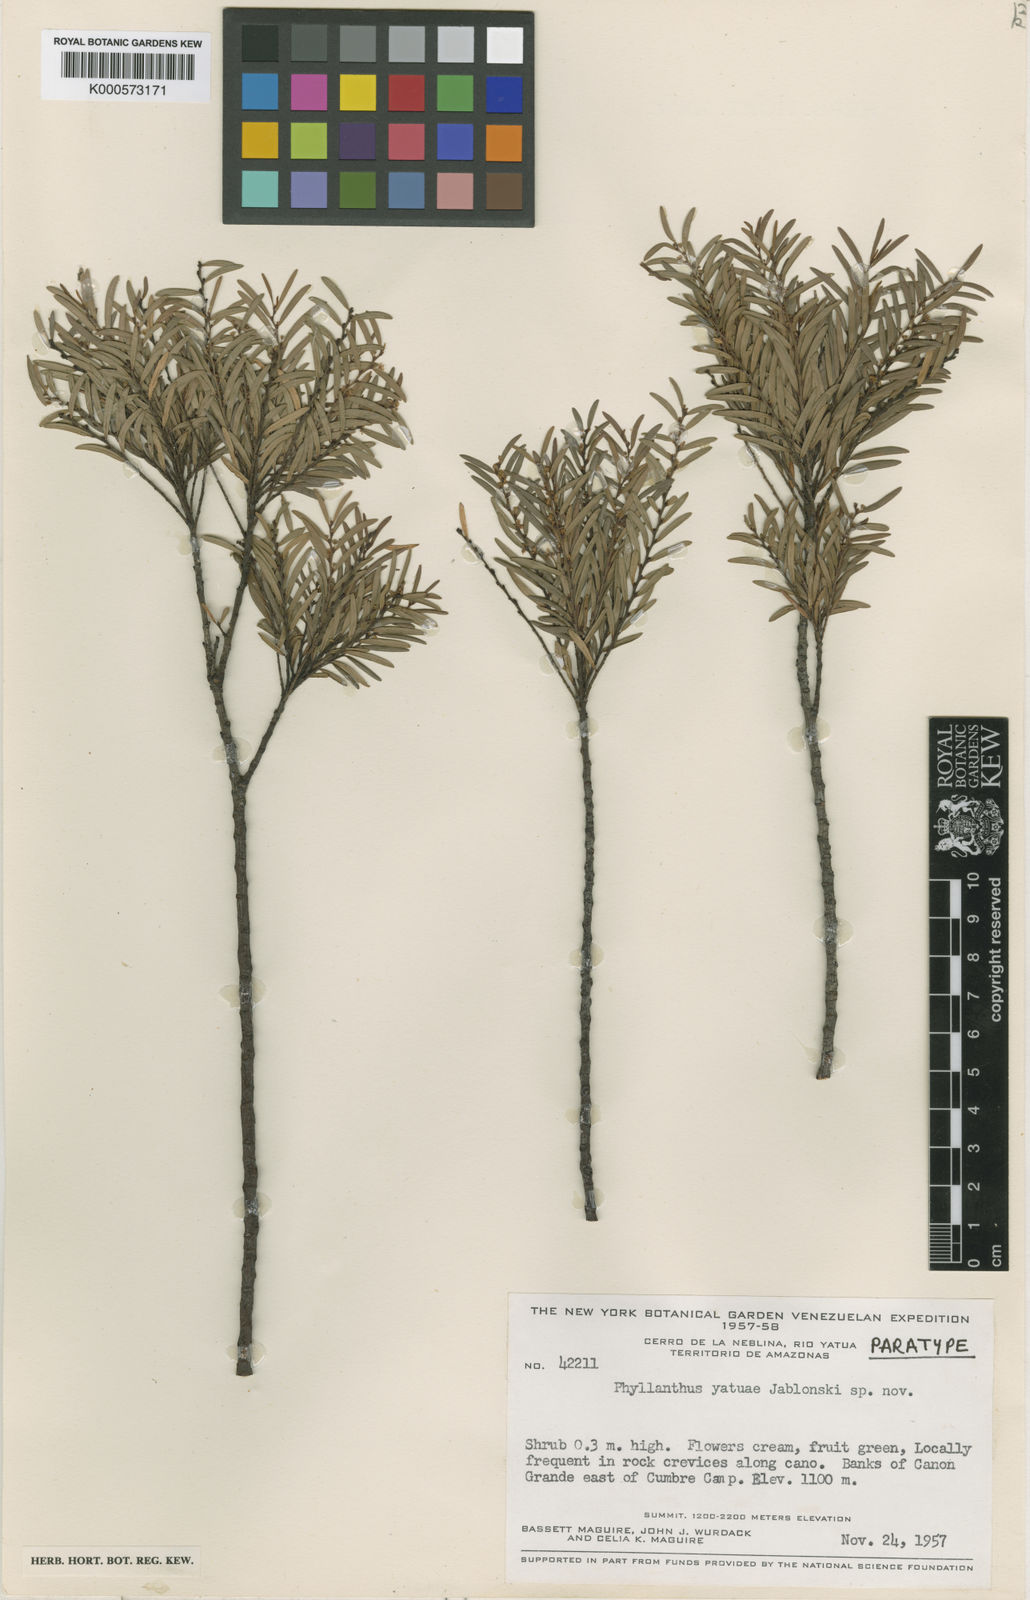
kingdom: Plantae
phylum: Tracheophyta
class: Magnoliopsida
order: Malpighiales
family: Phyllanthaceae
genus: Phyllanthus
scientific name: Phyllanthus
